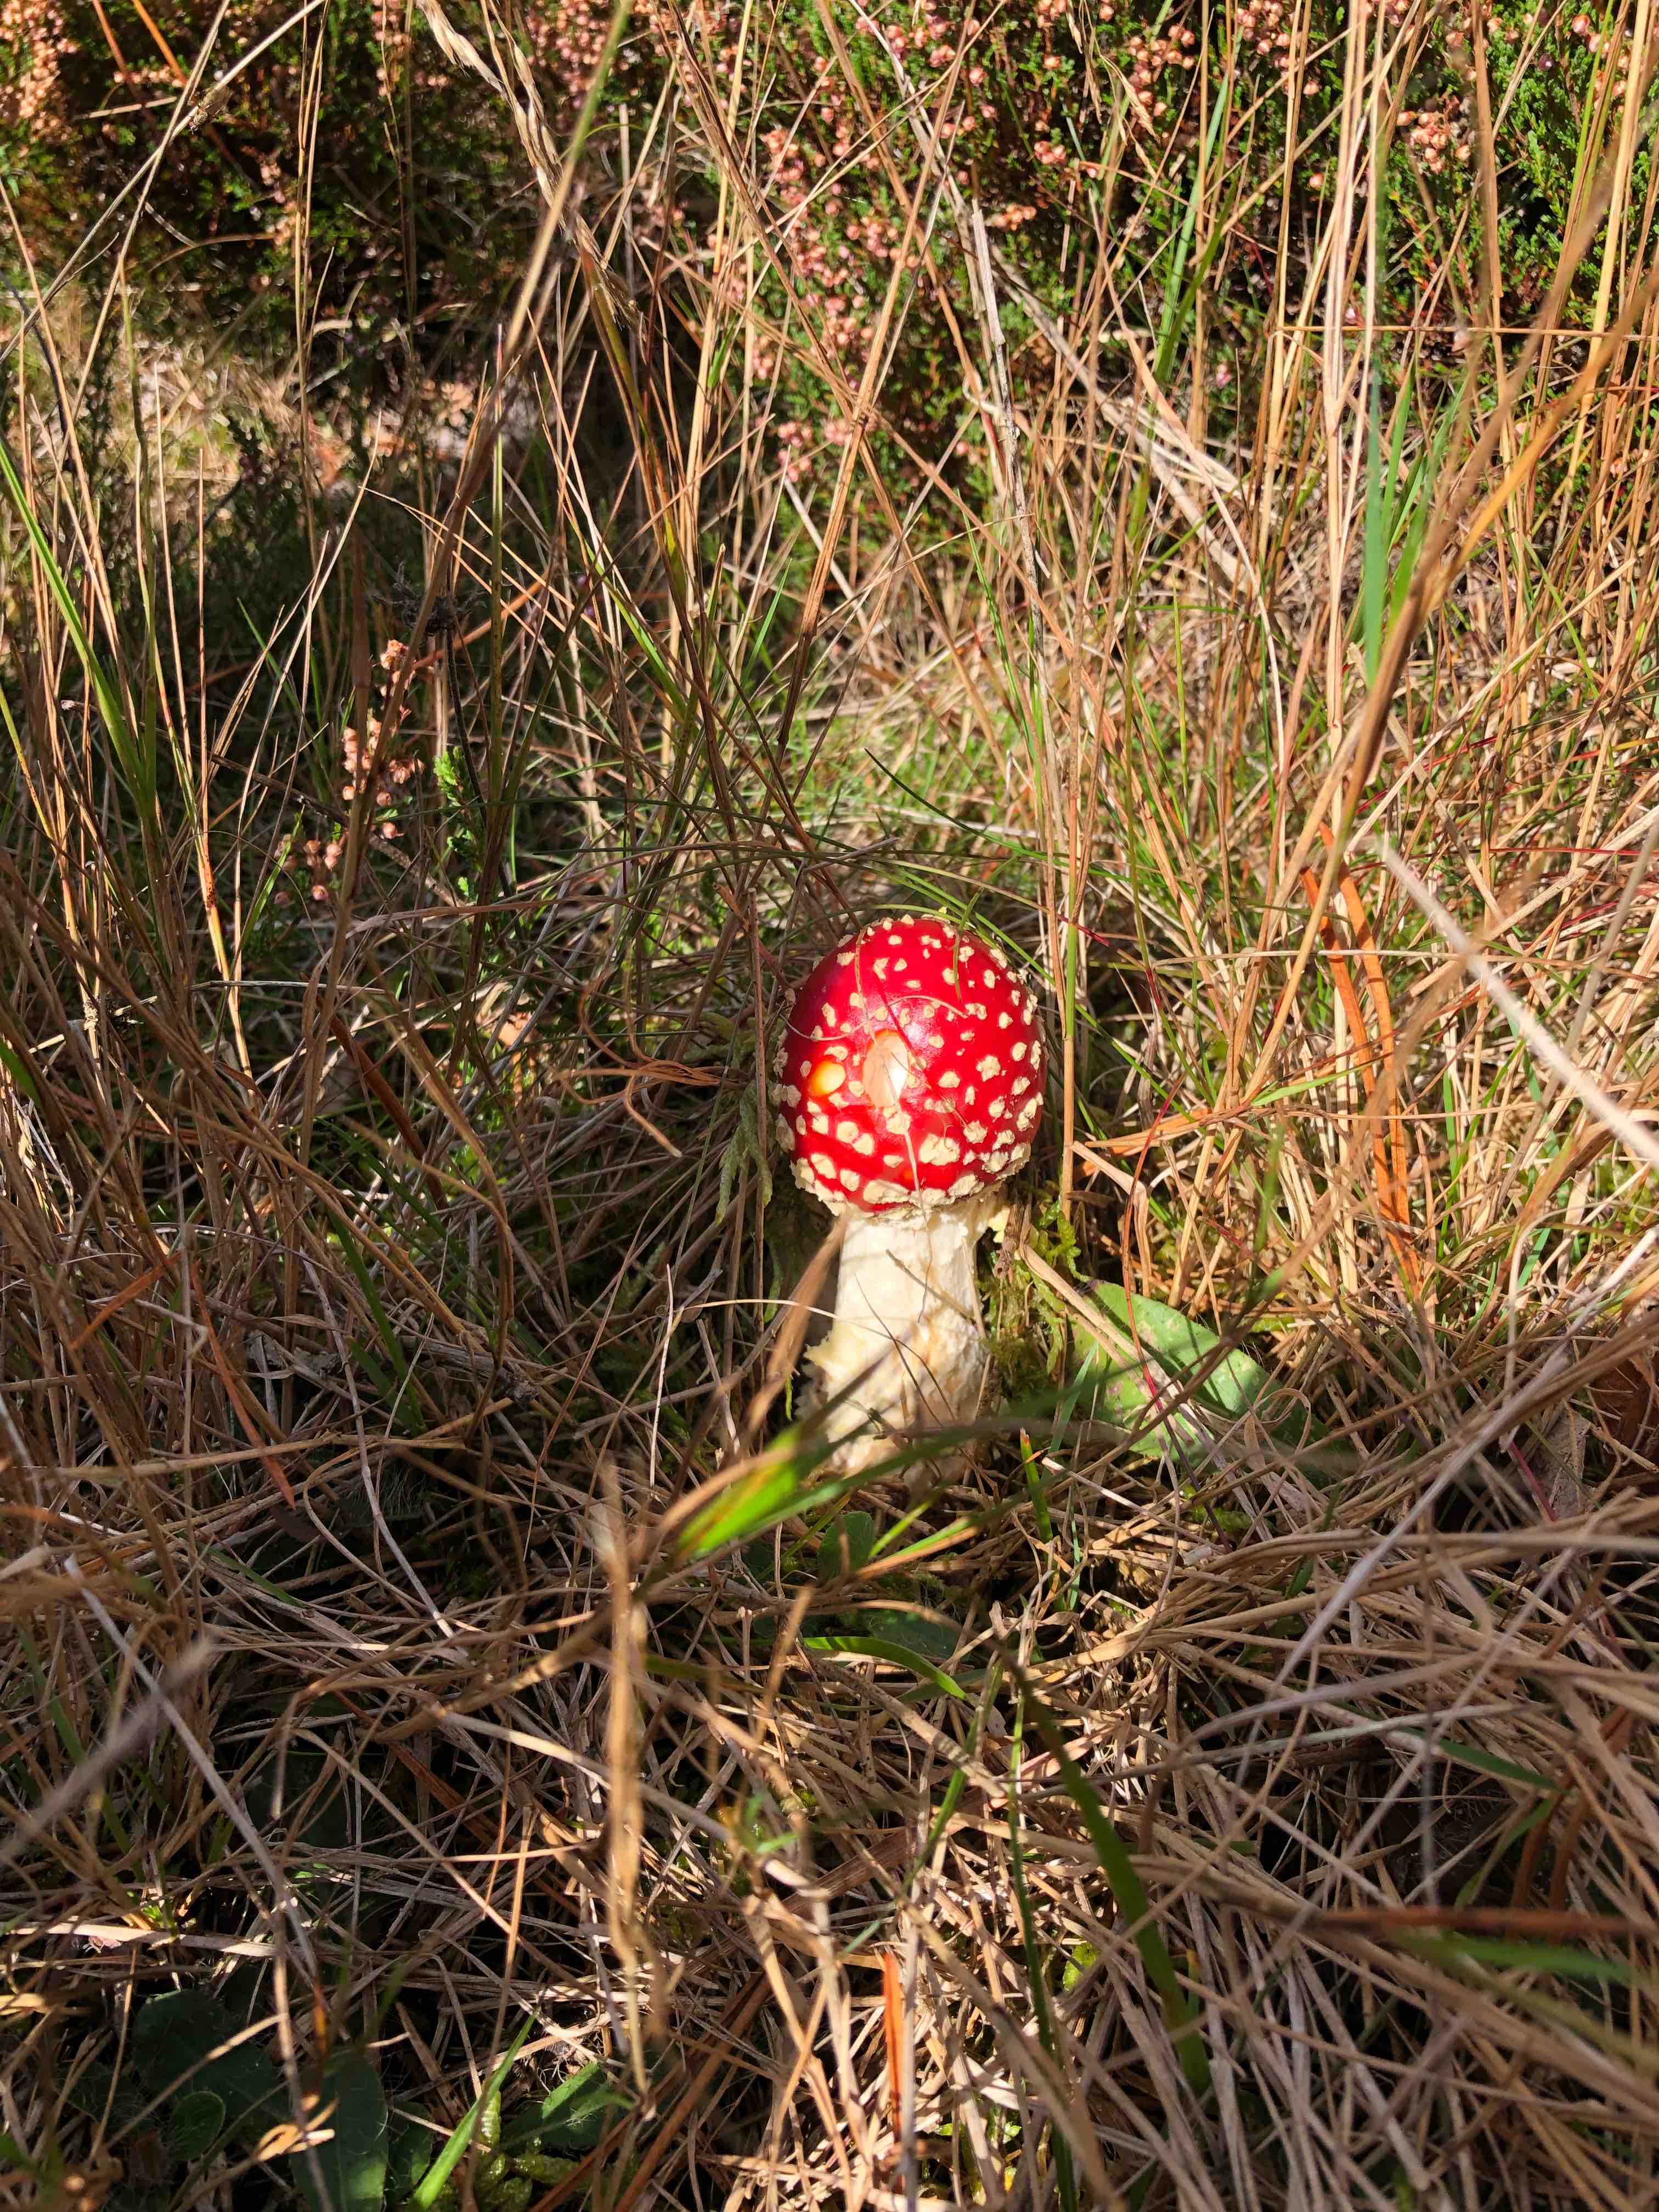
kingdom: Fungi
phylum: Basidiomycota
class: Agaricomycetes
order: Agaricales
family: Amanitaceae
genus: Amanita
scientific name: Amanita muscaria
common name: rød fluesvamp
